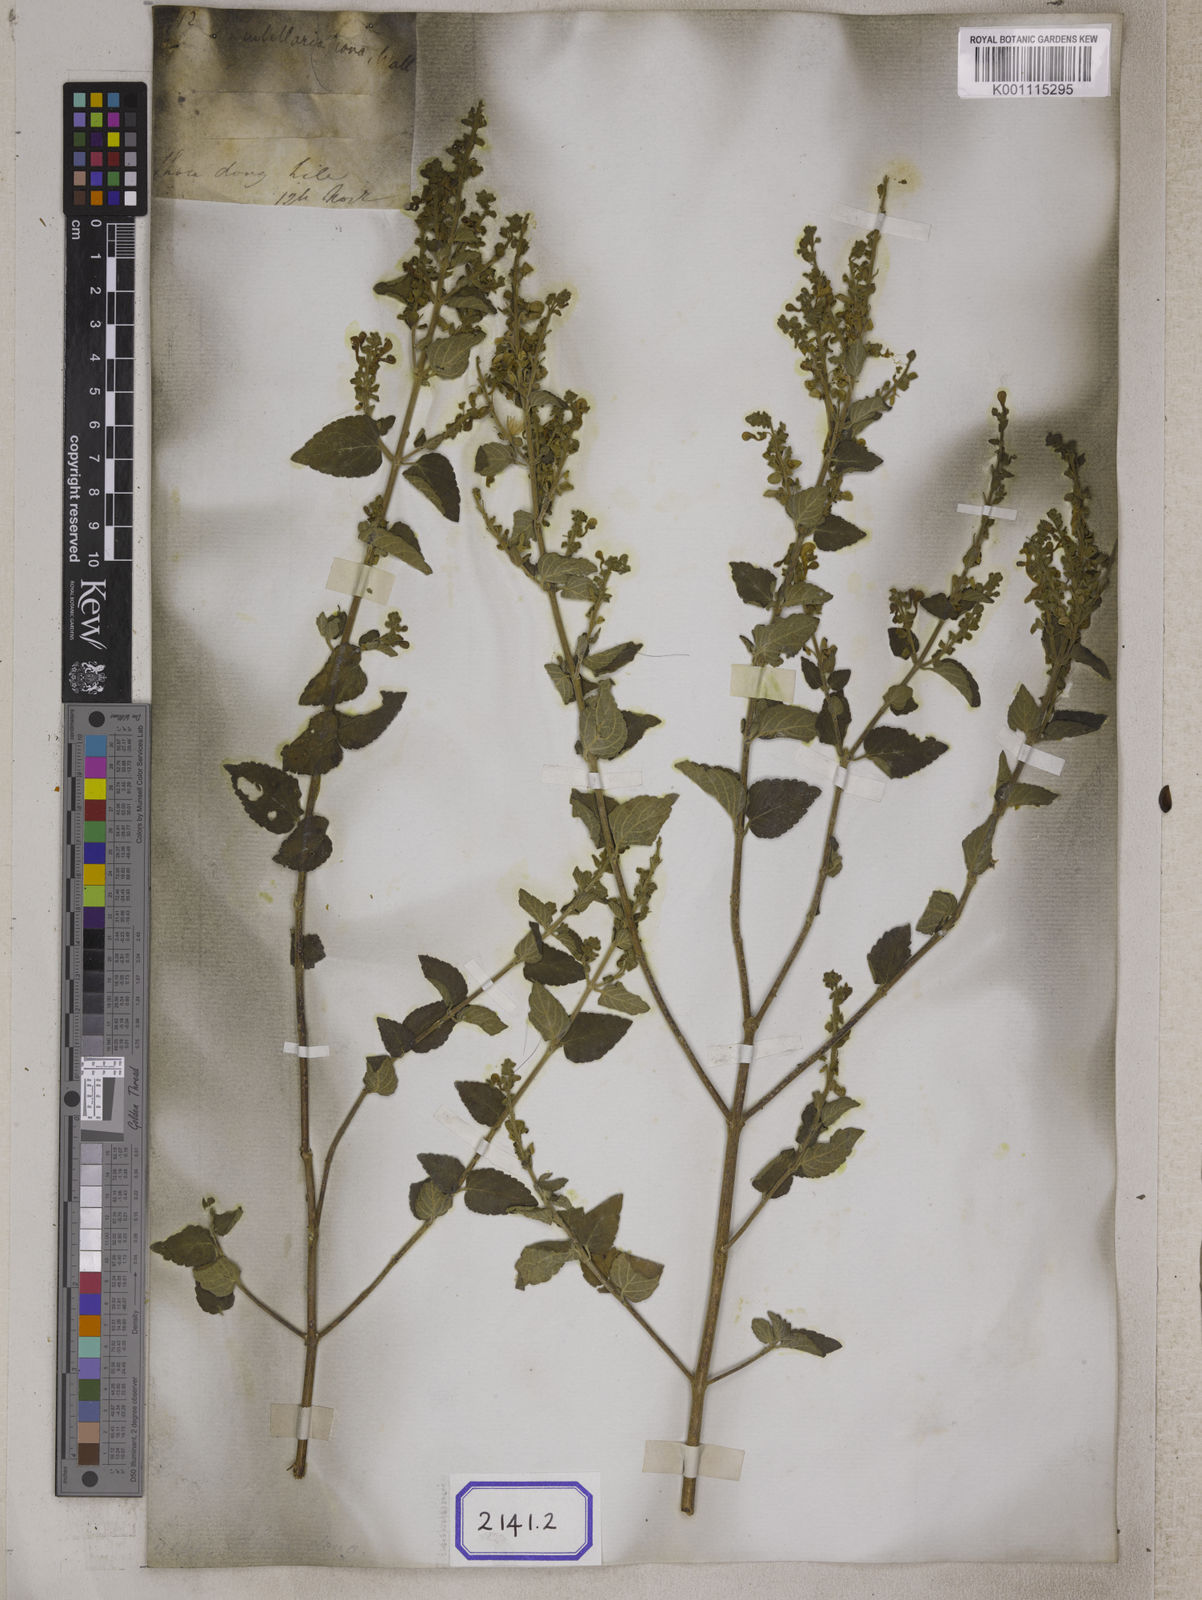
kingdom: Plantae
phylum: Tracheophyta
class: Magnoliopsida
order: Lamiales
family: Lamiaceae
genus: Scutellaria
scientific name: Scutellaria
